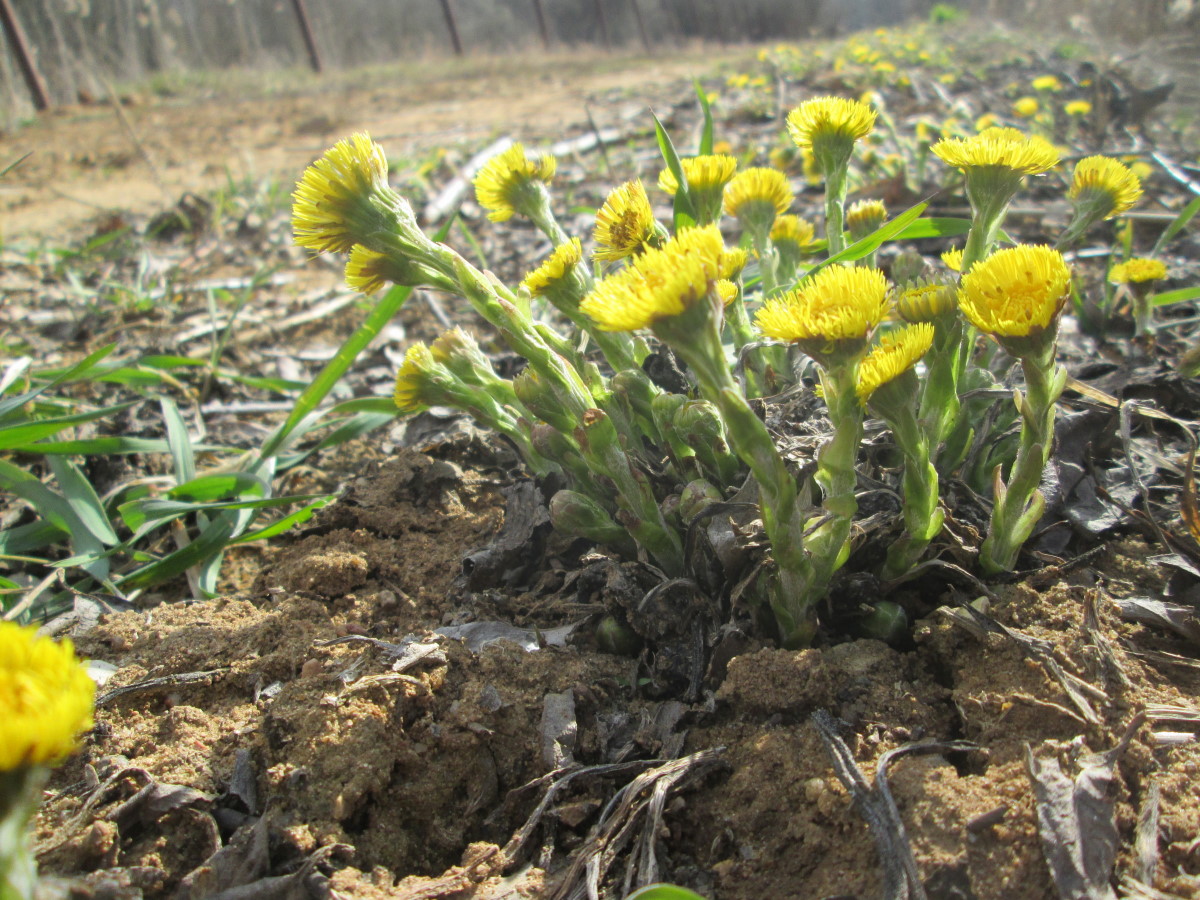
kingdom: Plantae
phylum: Tracheophyta
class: Magnoliopsida
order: Asterales
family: Asteraceae
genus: Tussilago
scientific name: Tussilago farfara
